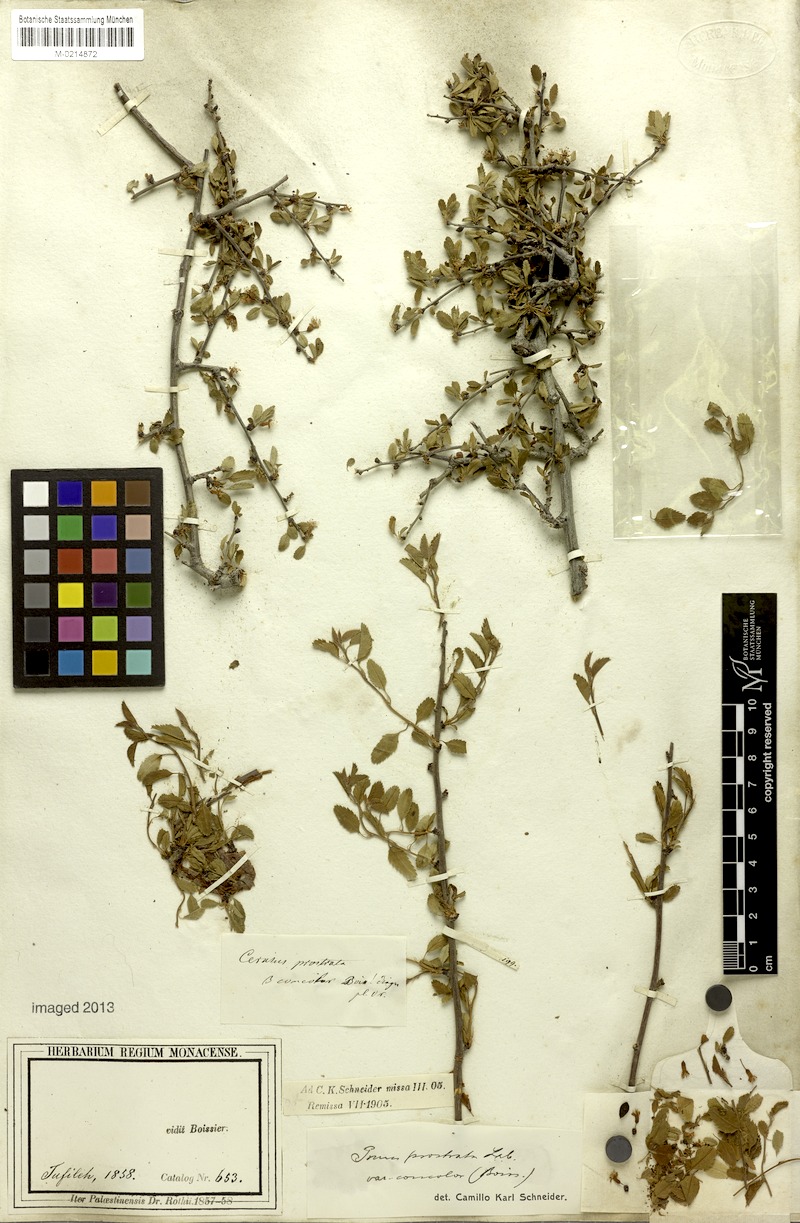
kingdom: Plantae
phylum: Tracheophyta
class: Magnoliopsida
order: Rosales
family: Rosaceae
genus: Prunus
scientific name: Prunus prostrata
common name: Mountain cherry
